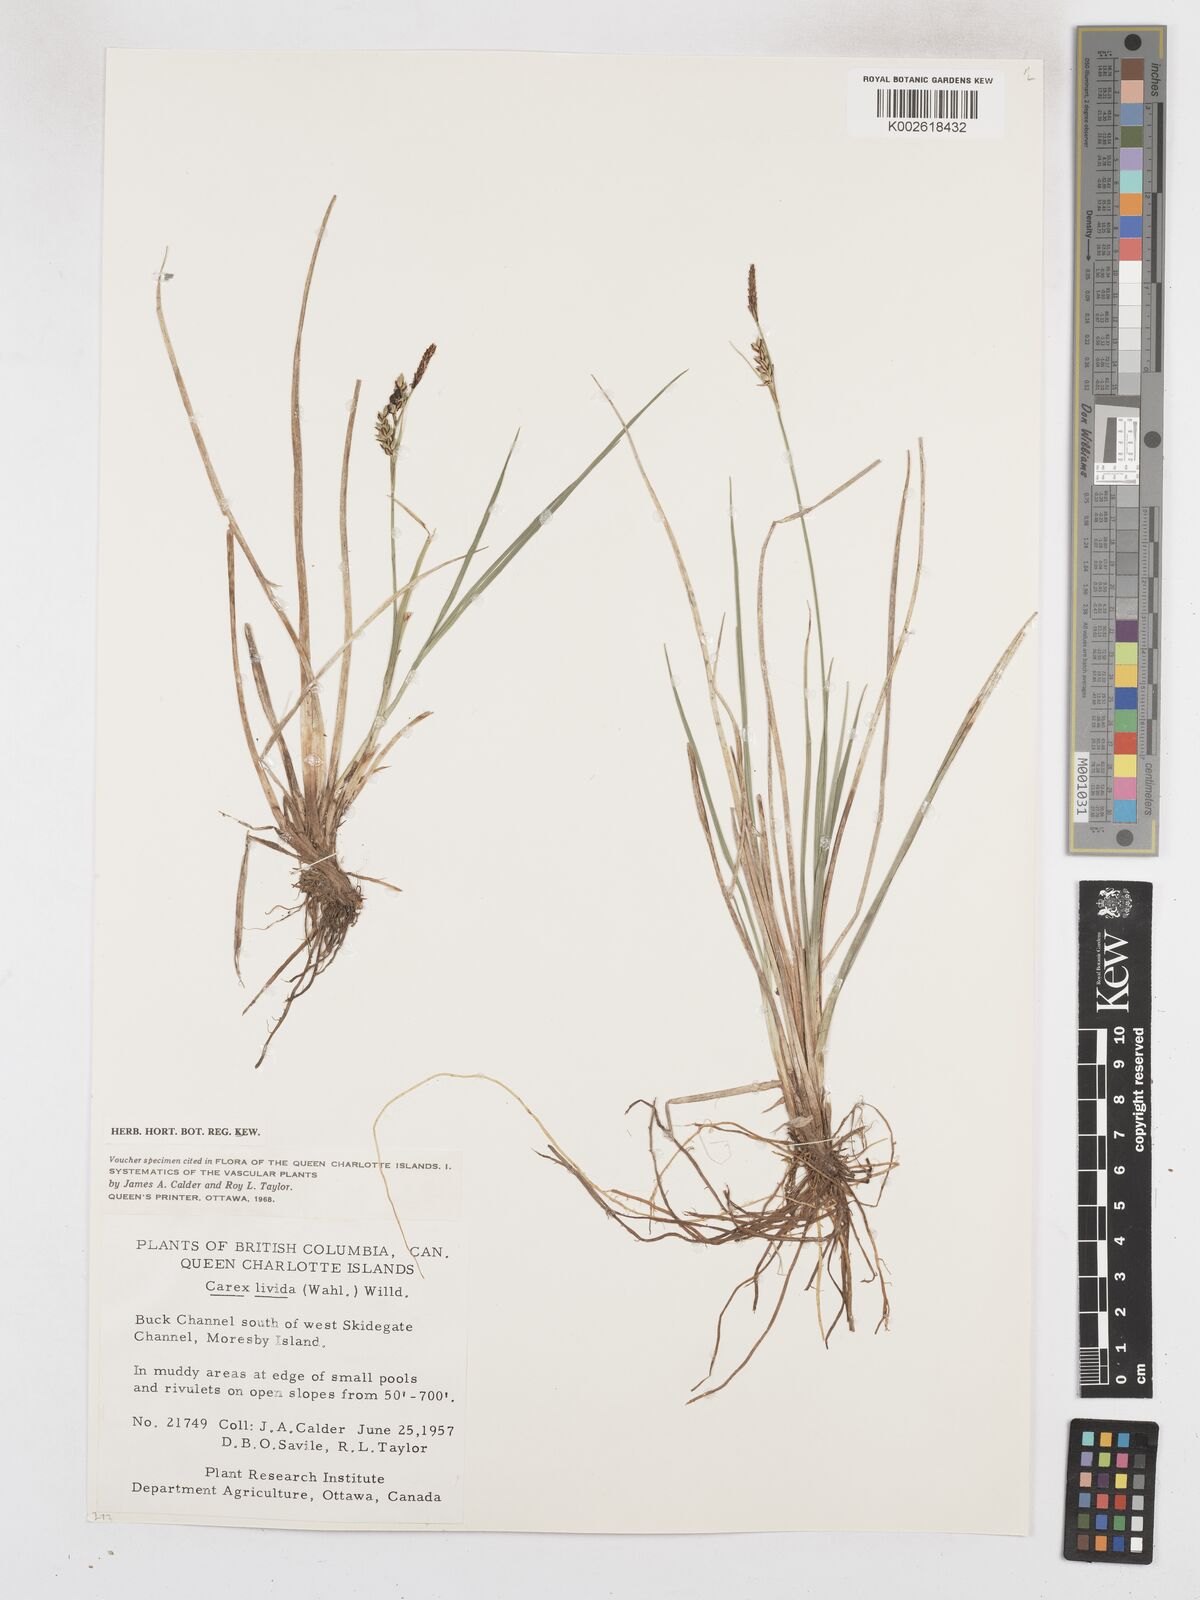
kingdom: Plantae
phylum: Tracheophyta
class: Liliopsida
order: Poales
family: Cyperaceae
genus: Carex
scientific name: Carex livida
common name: Livid sedge
